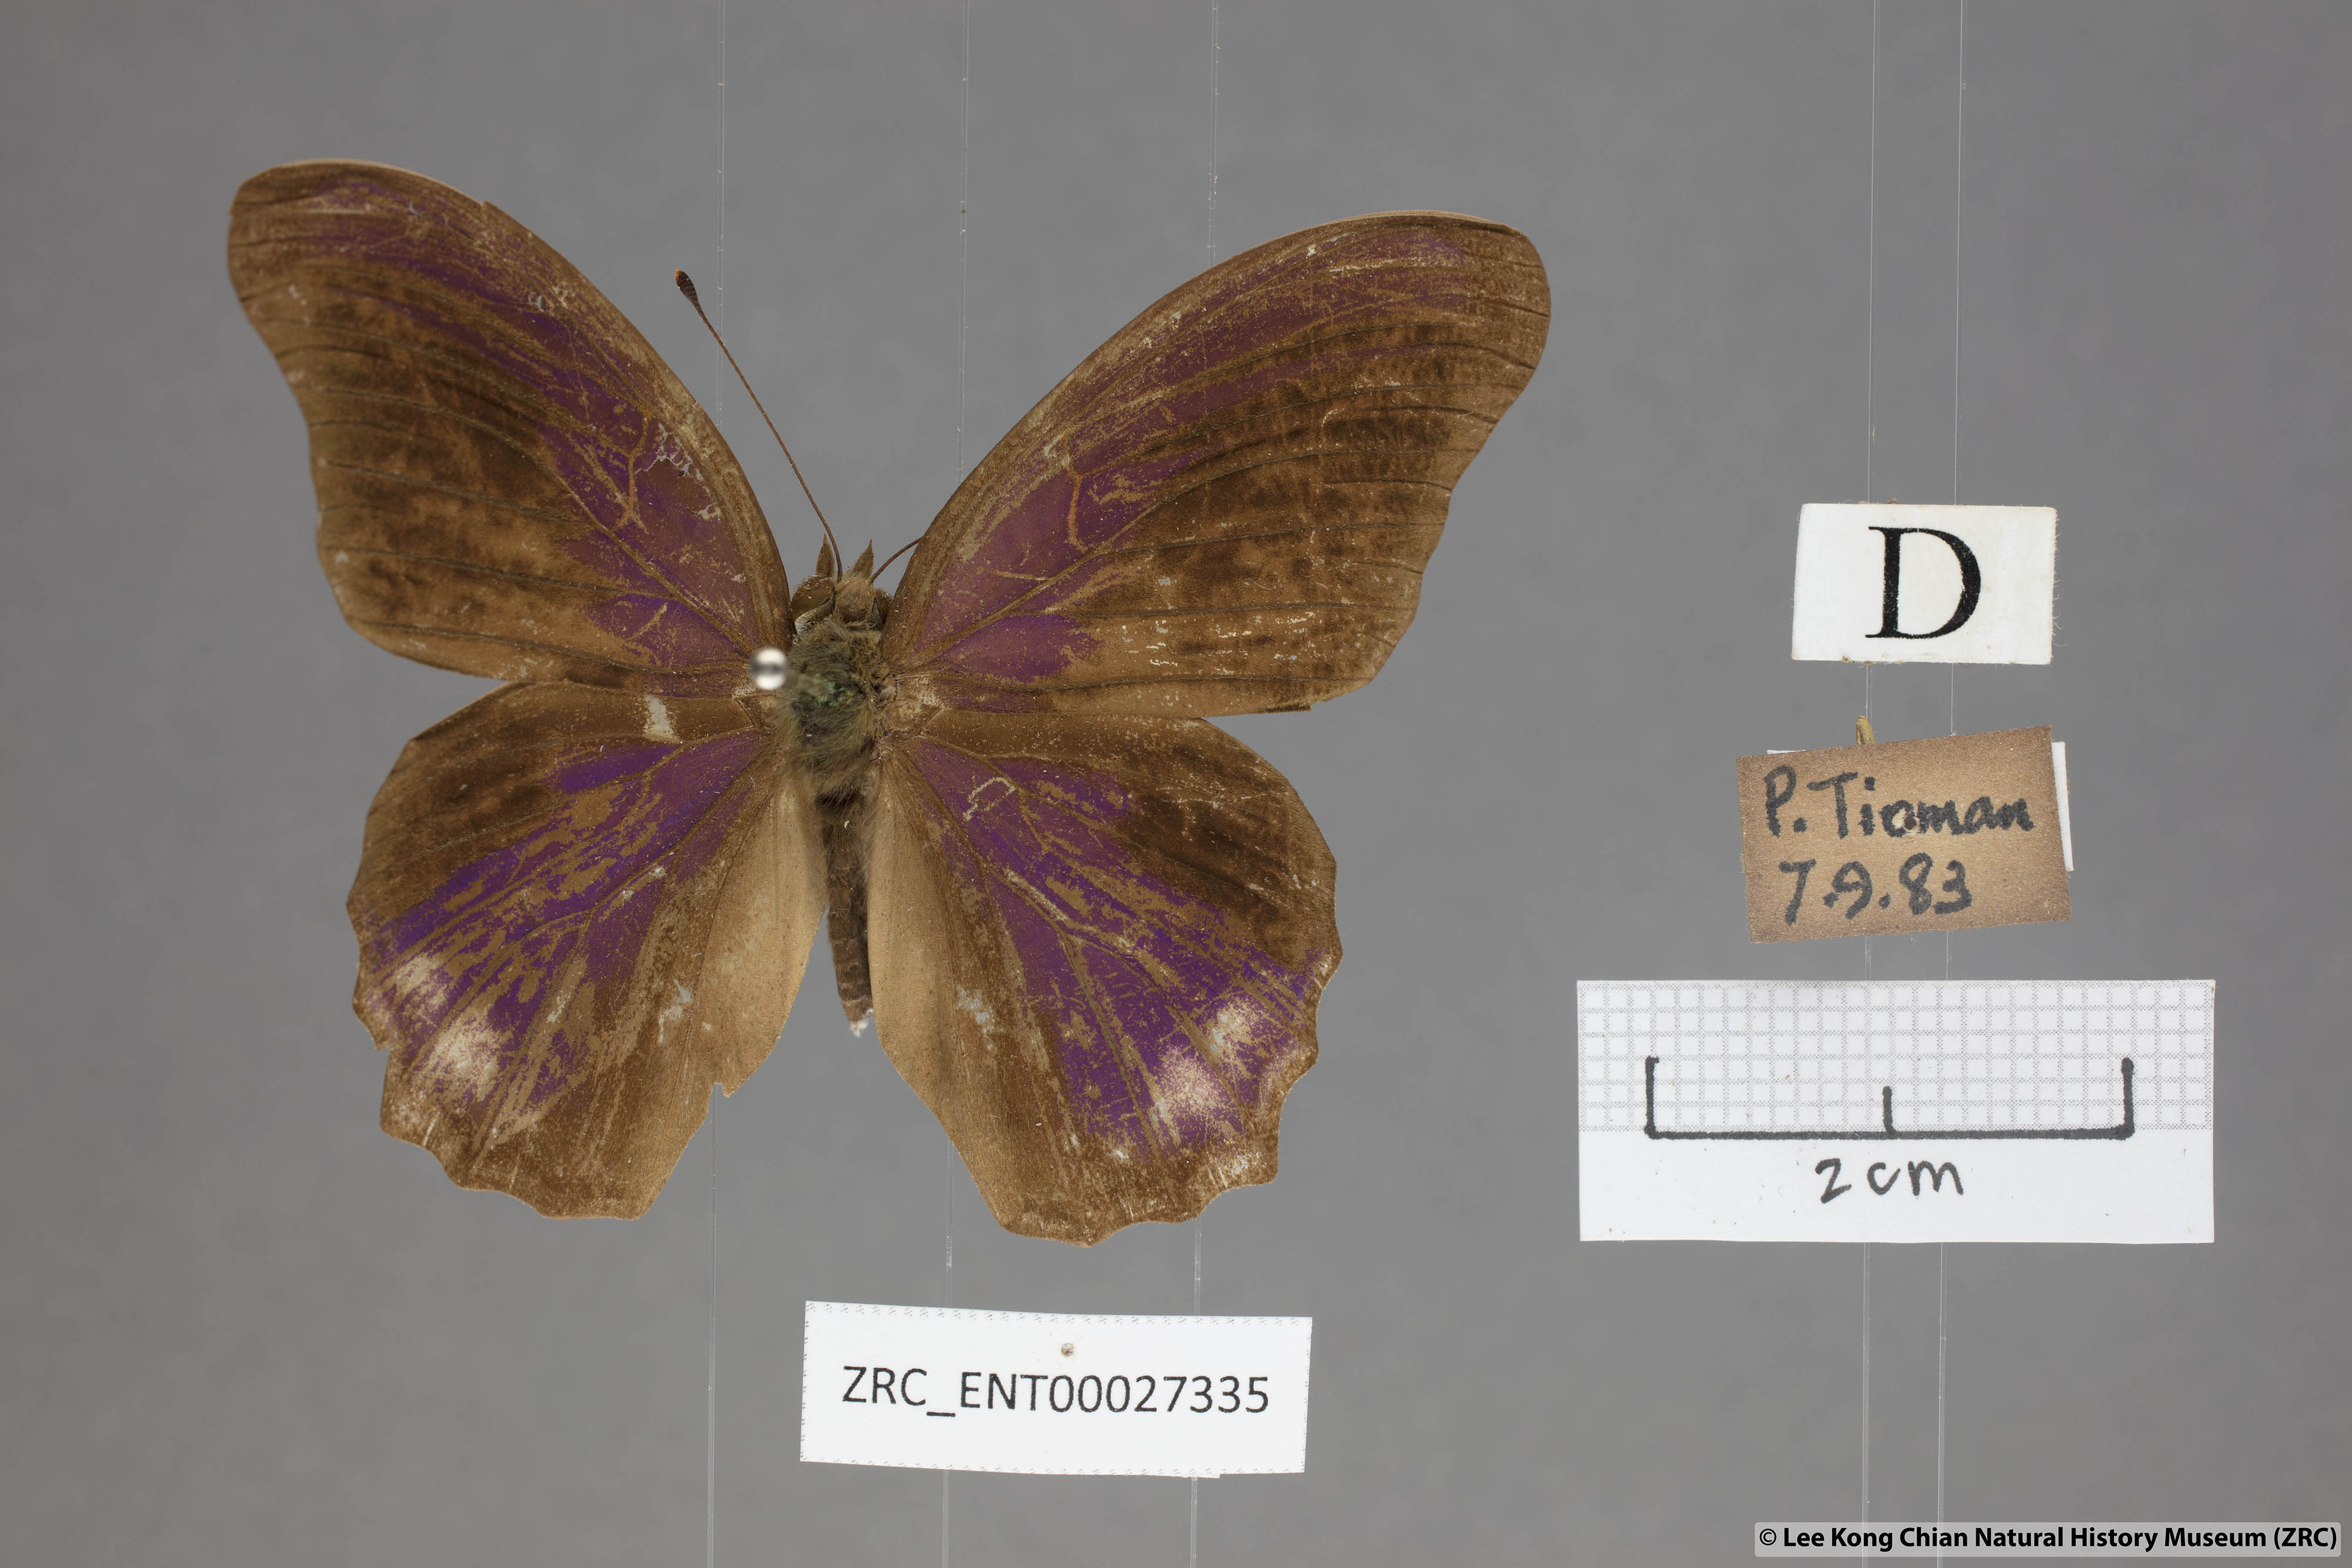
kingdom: Animalia
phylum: Arthropoda
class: Insecta
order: Lepidoptera
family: Nymphalidae
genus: Terinos
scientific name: Terinos terpander
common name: Royal assyrian
